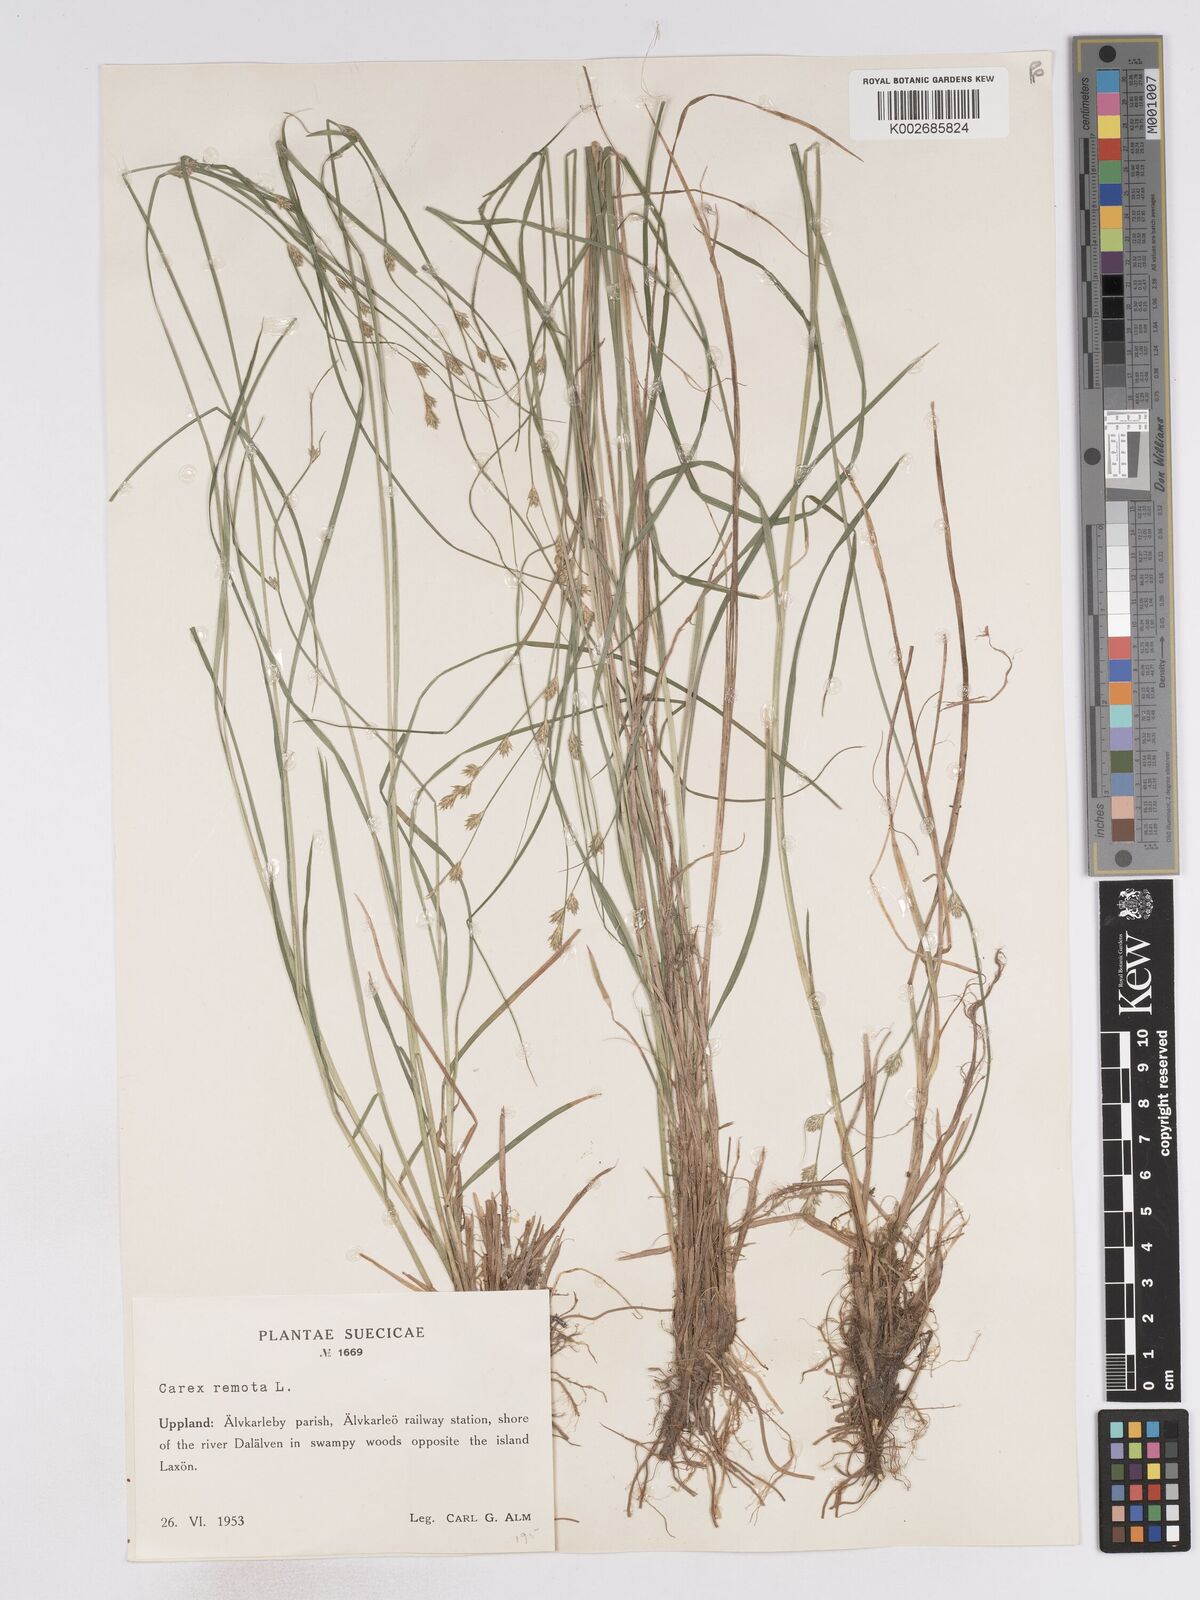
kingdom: Plantae
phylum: Tracheophyta
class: Liliopsida
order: Poales
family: Cyperaceae
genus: Carex
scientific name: Carex remota
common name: Remote sedge
